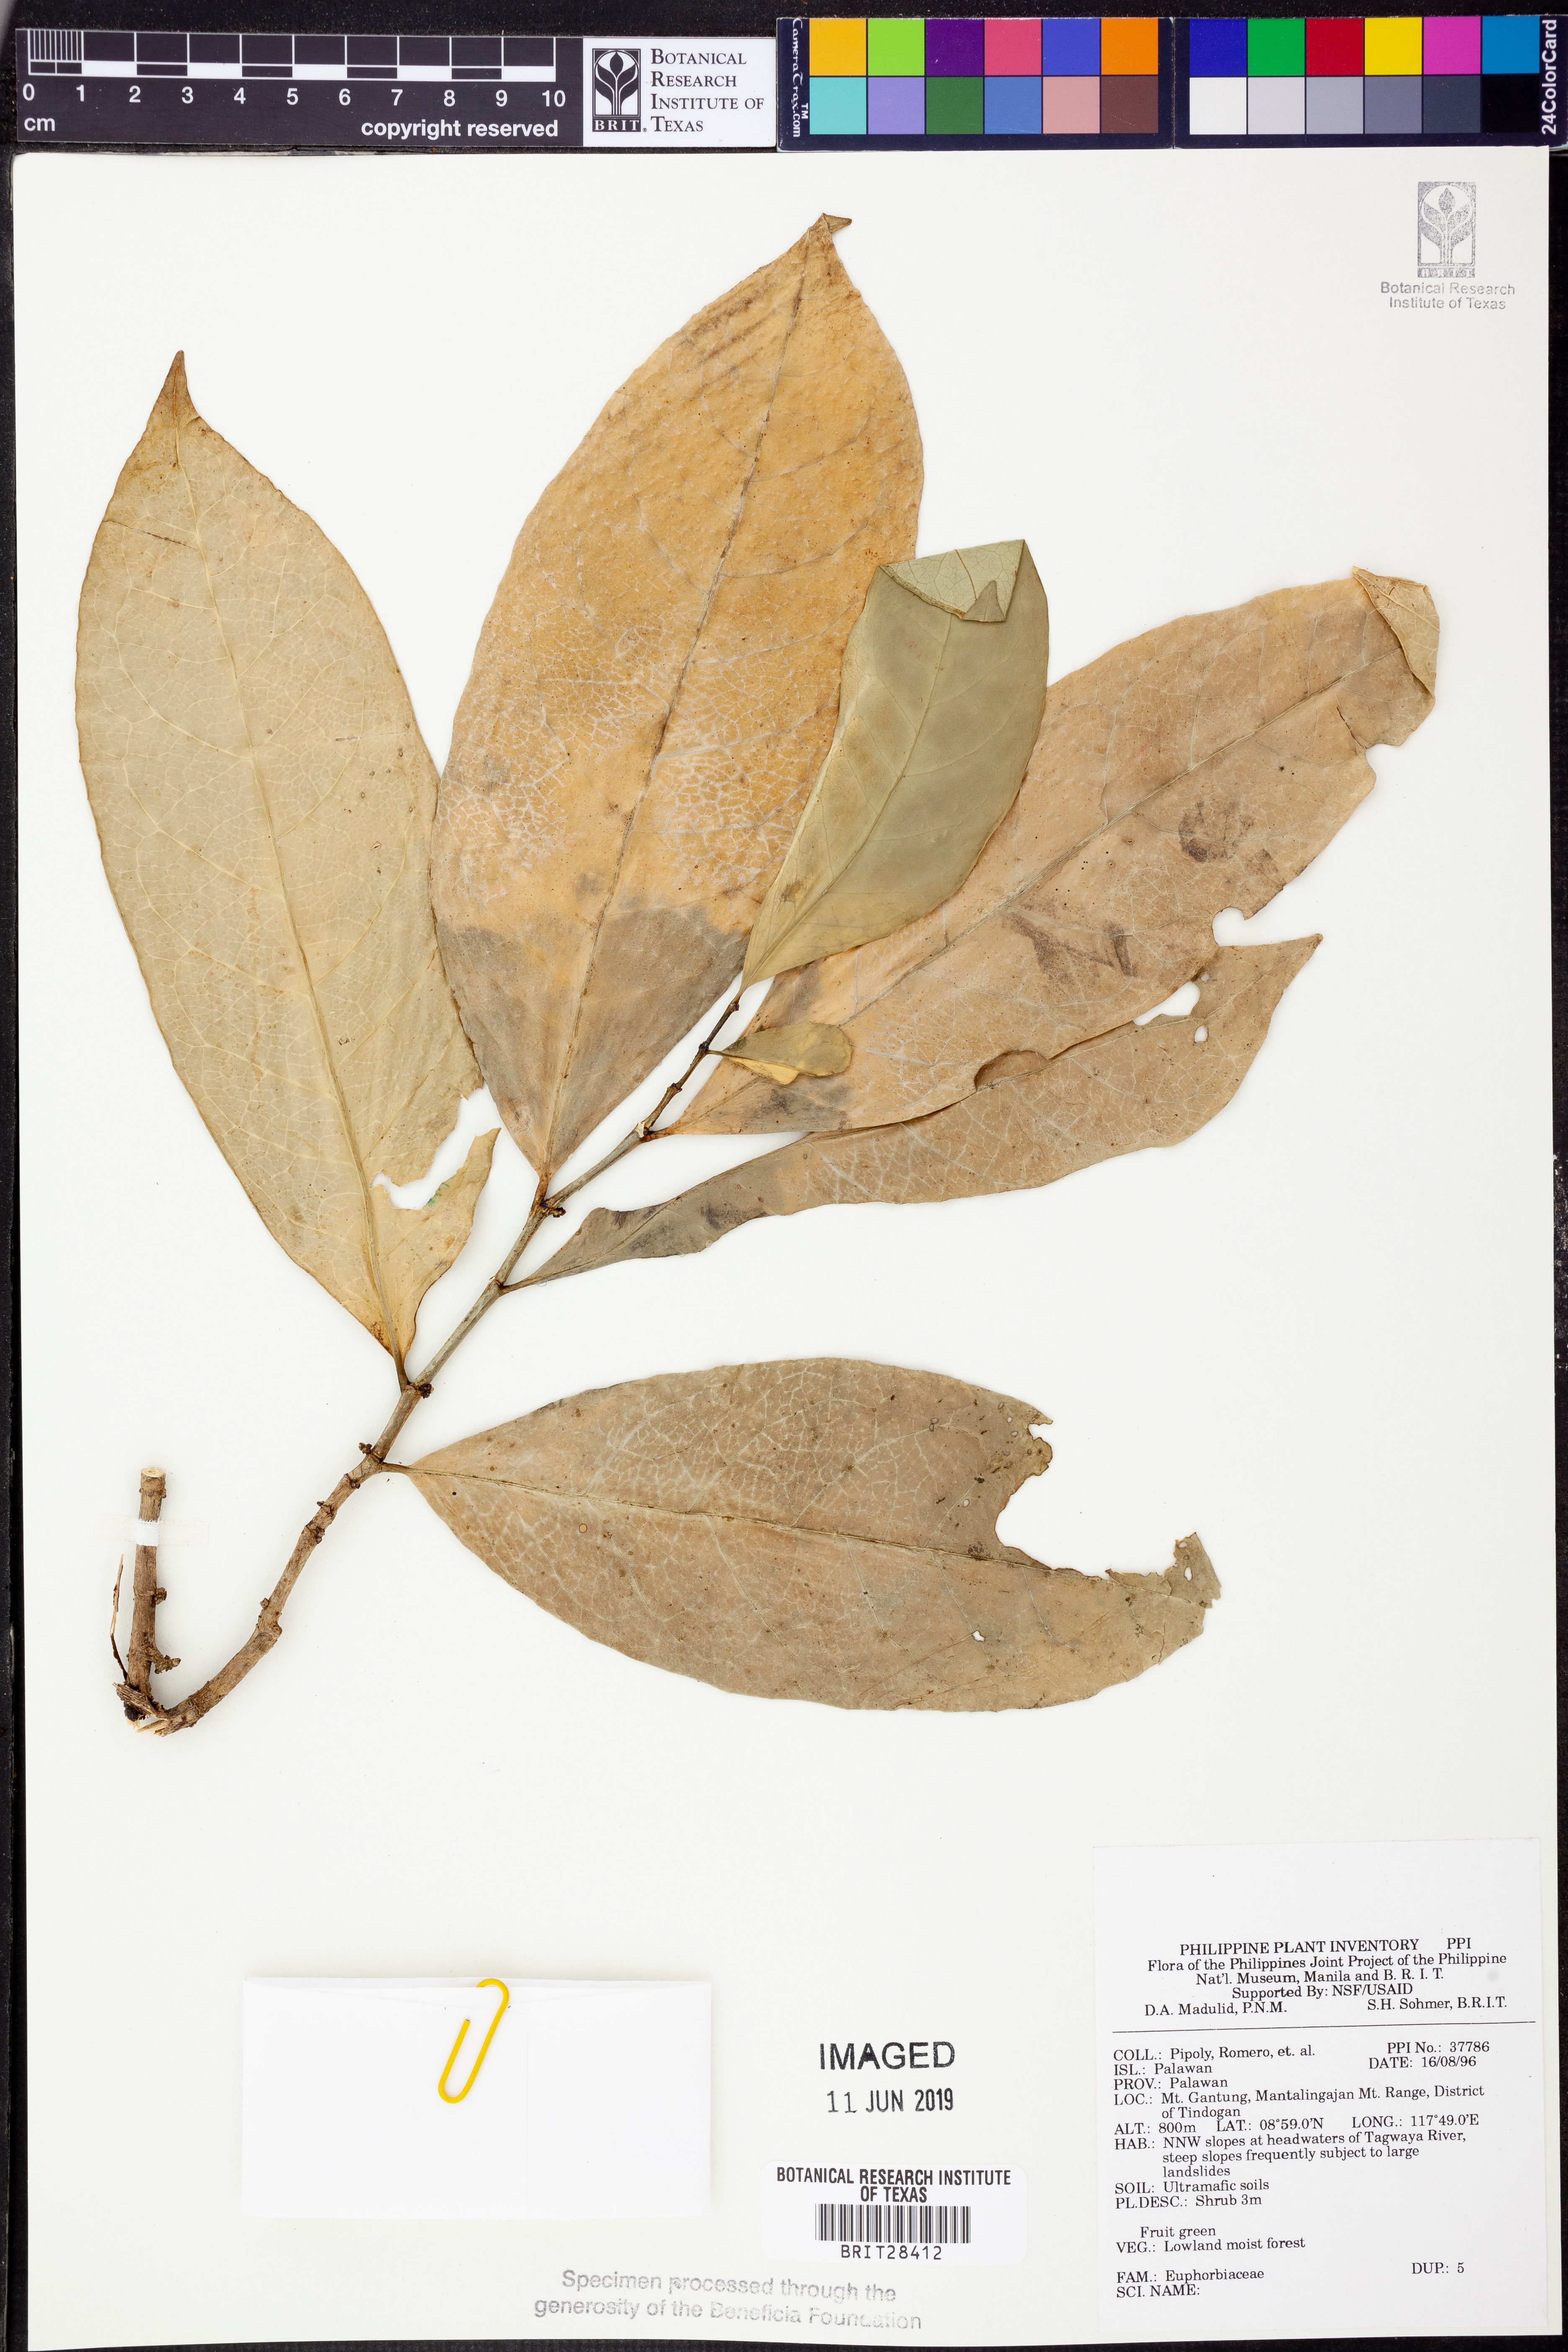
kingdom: Plantae
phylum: Tracheophyta
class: Magnoliopsida
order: Malpighiales
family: Euphorbiaceae
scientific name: Euphorbiaceae
